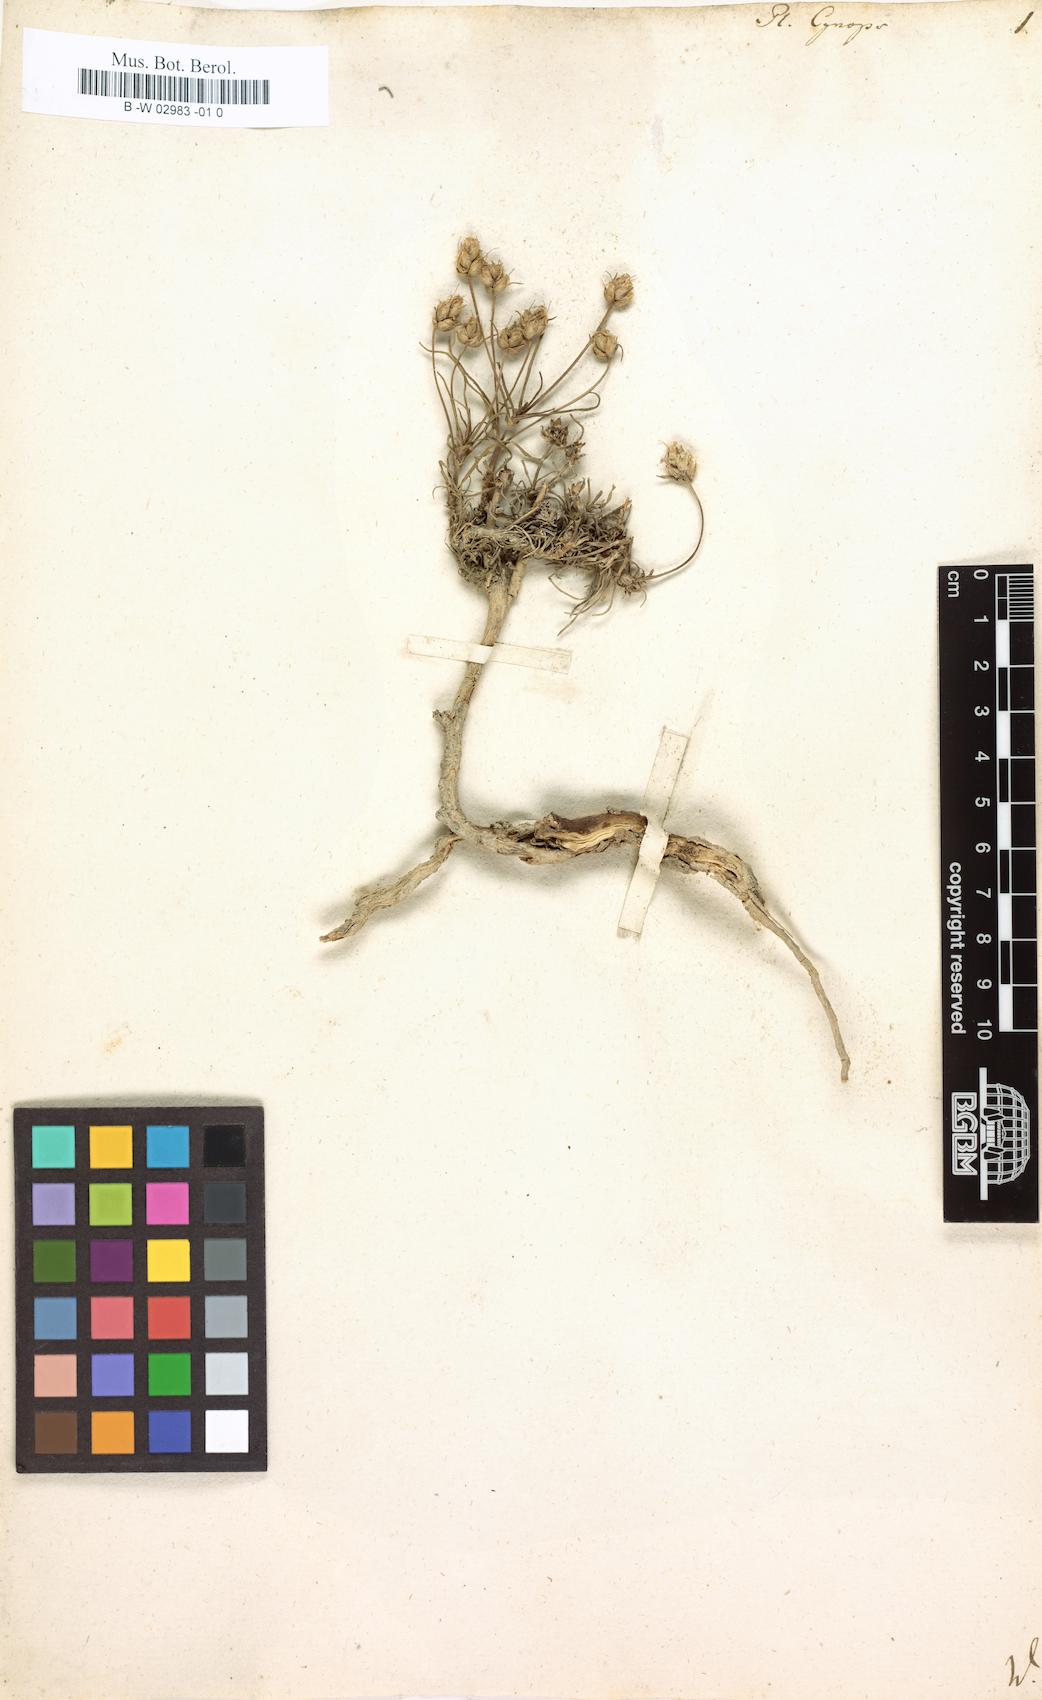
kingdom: Plantae
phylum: Tracheophyta
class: Magnoliopsida
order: Lamiales
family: Plantaginaceae
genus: Plantago
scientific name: Plantago sempervirens
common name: Shrubby plantain
